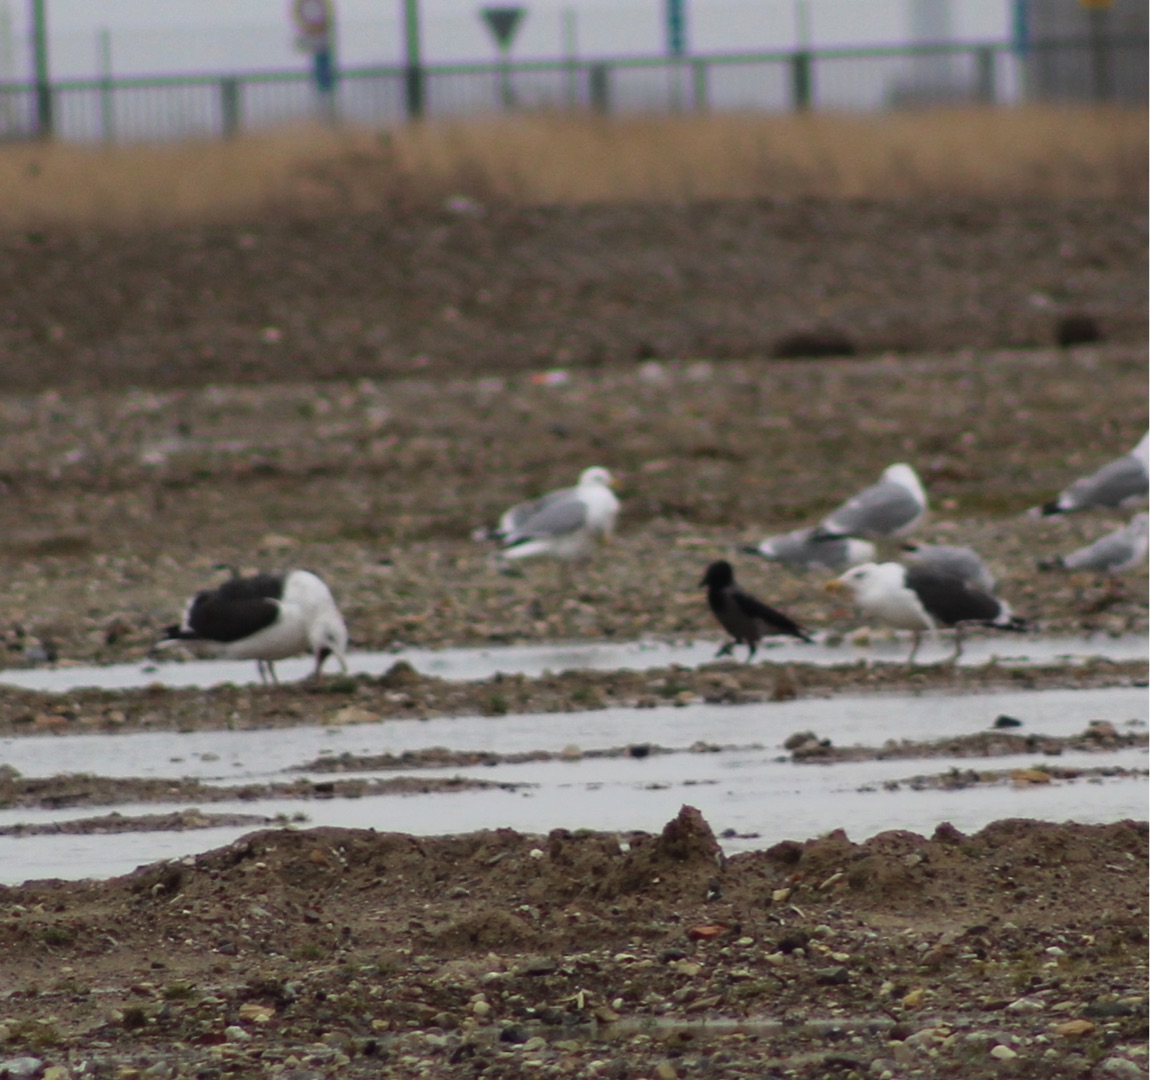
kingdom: Animalia
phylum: Chordata
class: Aves
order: Charadriiformes
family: Laridae
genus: Larus
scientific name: Larus marinus
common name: Svartbag
